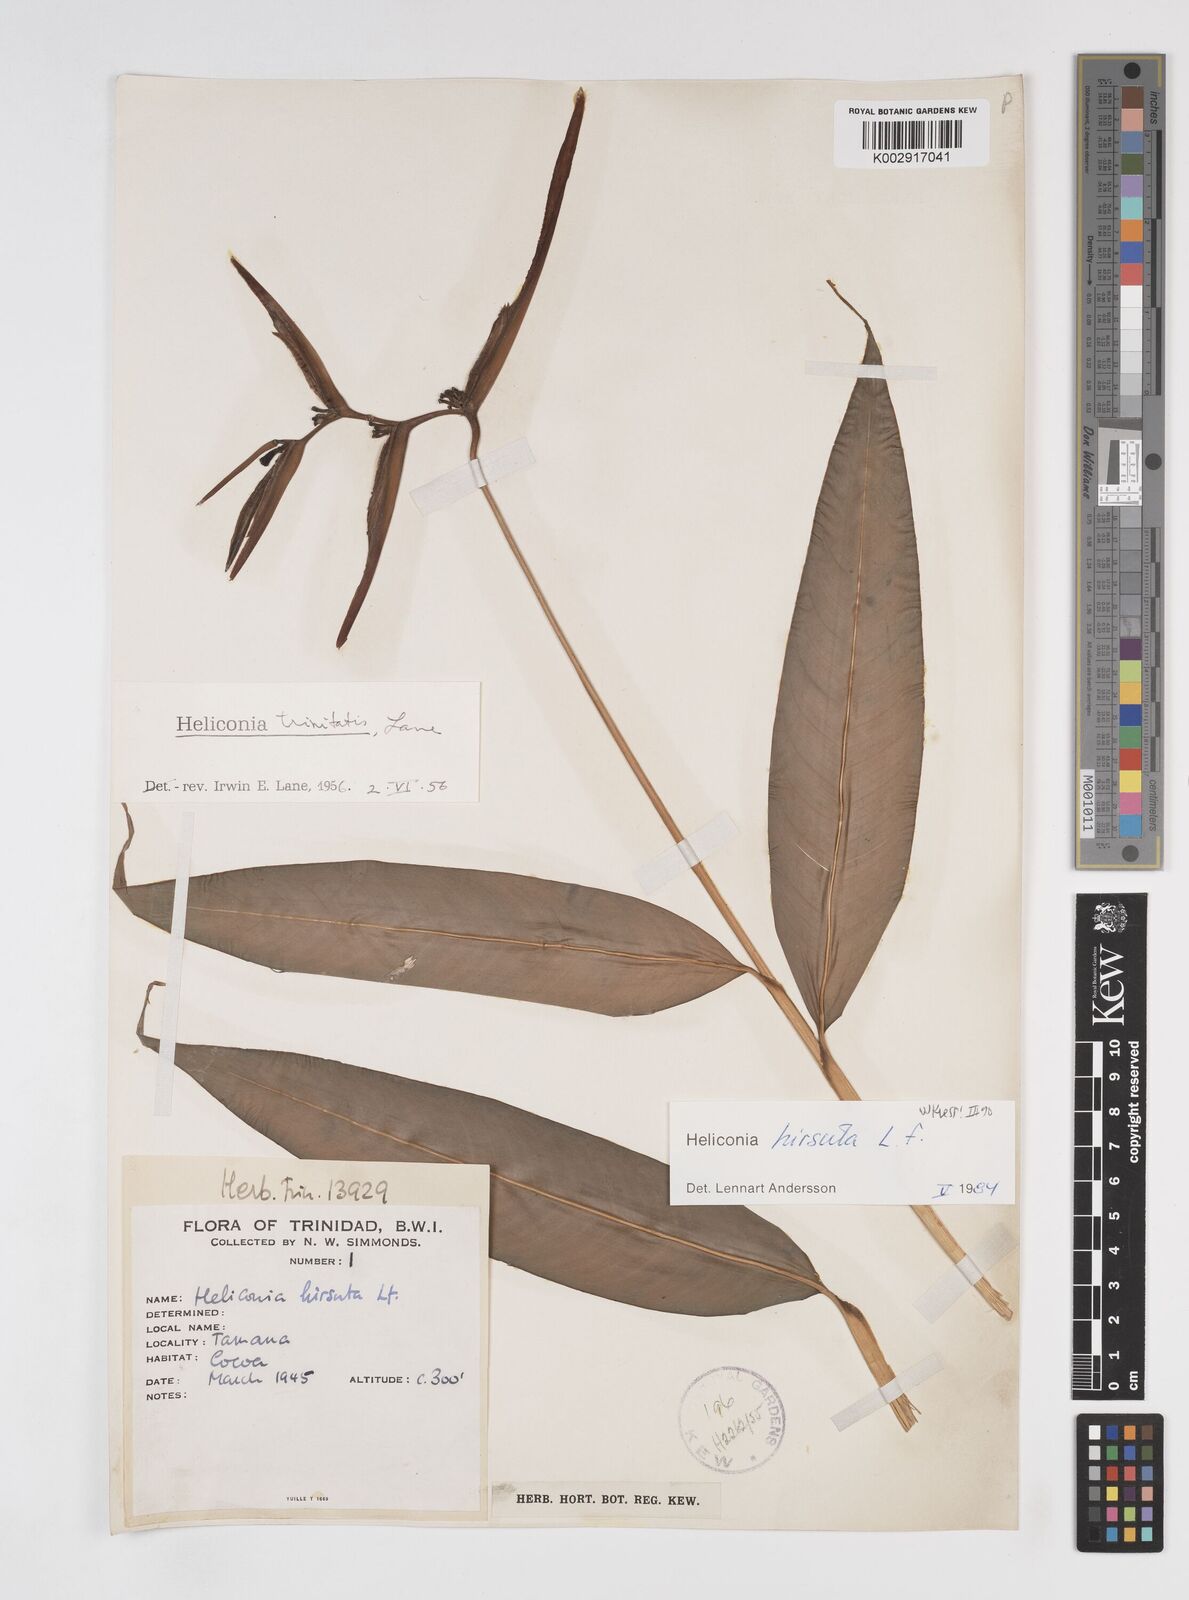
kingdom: Plantae
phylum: Tracheophyta
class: Liliopsida
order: Zingiberales
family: Heliconiaceae
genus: Heliconia
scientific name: Heliconia hirsuta
